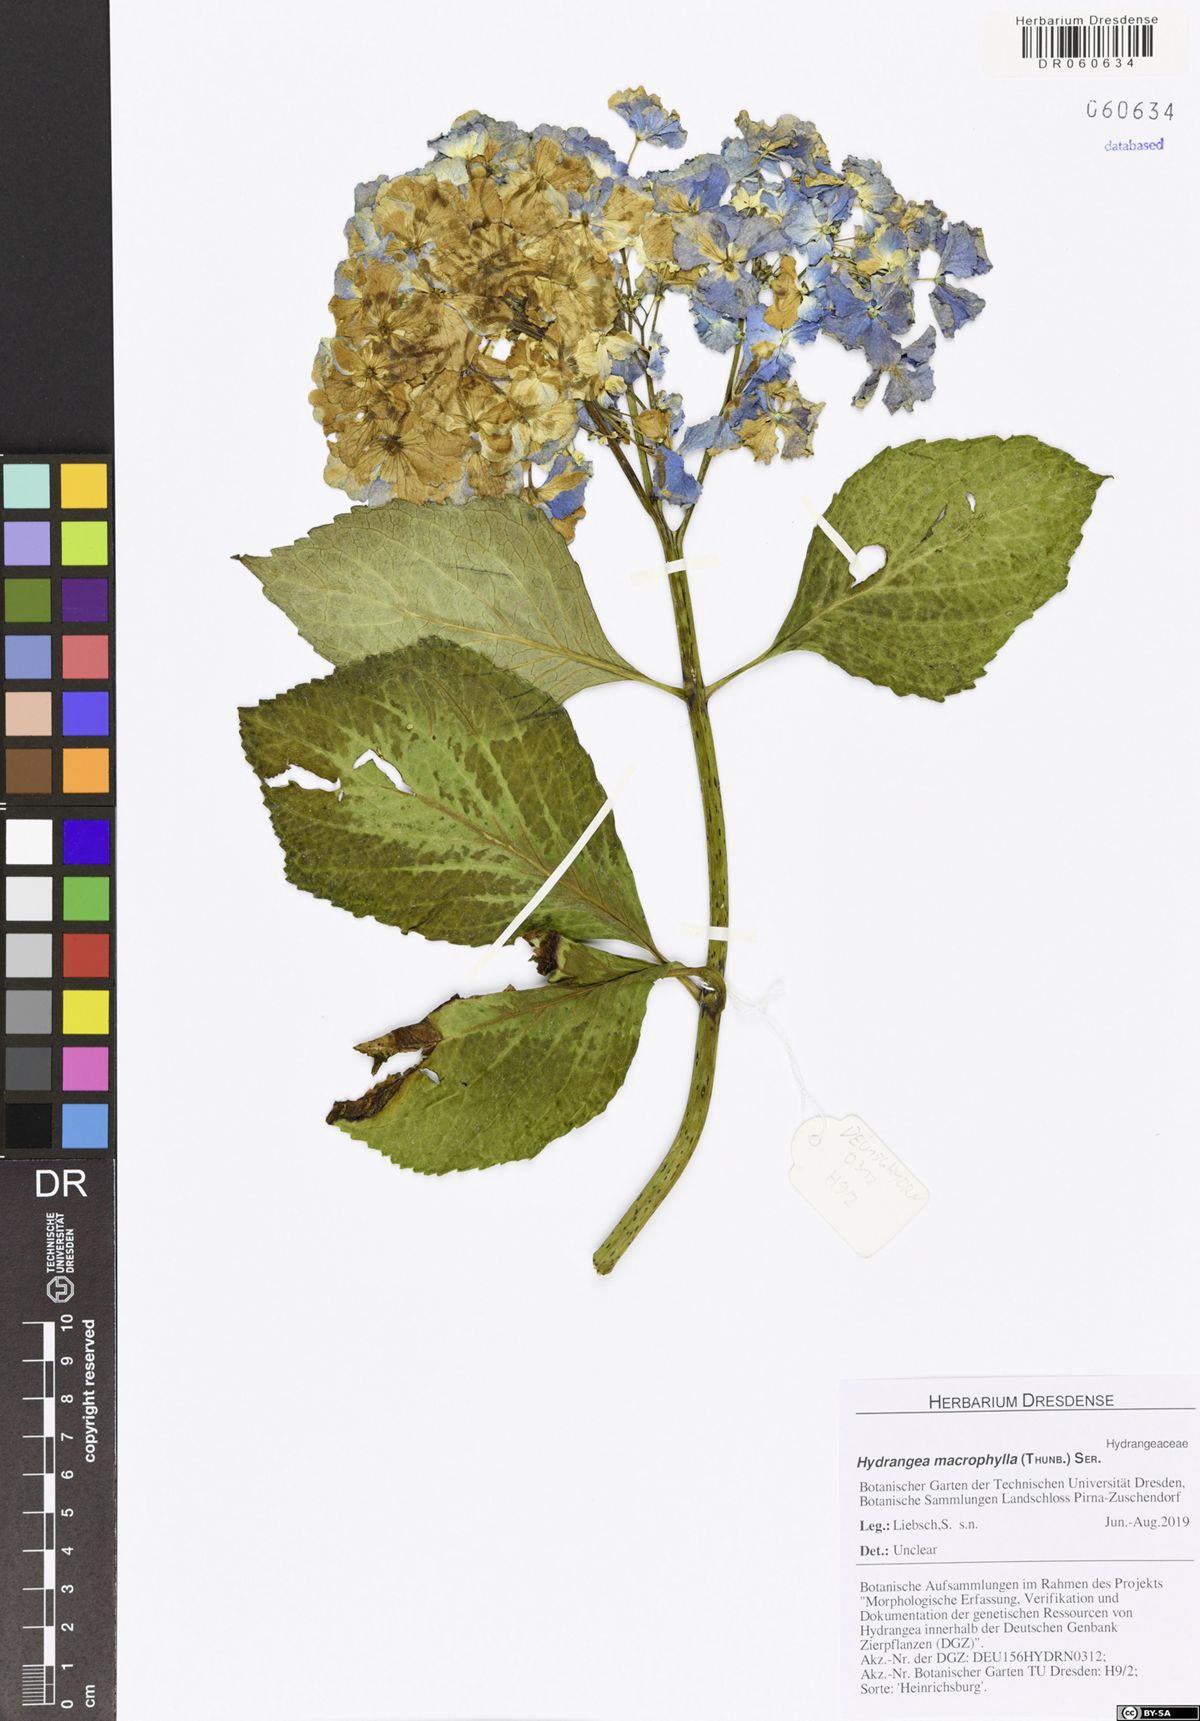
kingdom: Plantae
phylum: Tracheophyta
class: Magnoliopsida
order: Cornales
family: Hydrangeaceae
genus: Hydrangea
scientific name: Hydrangea macrophylla
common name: Hydrangea
